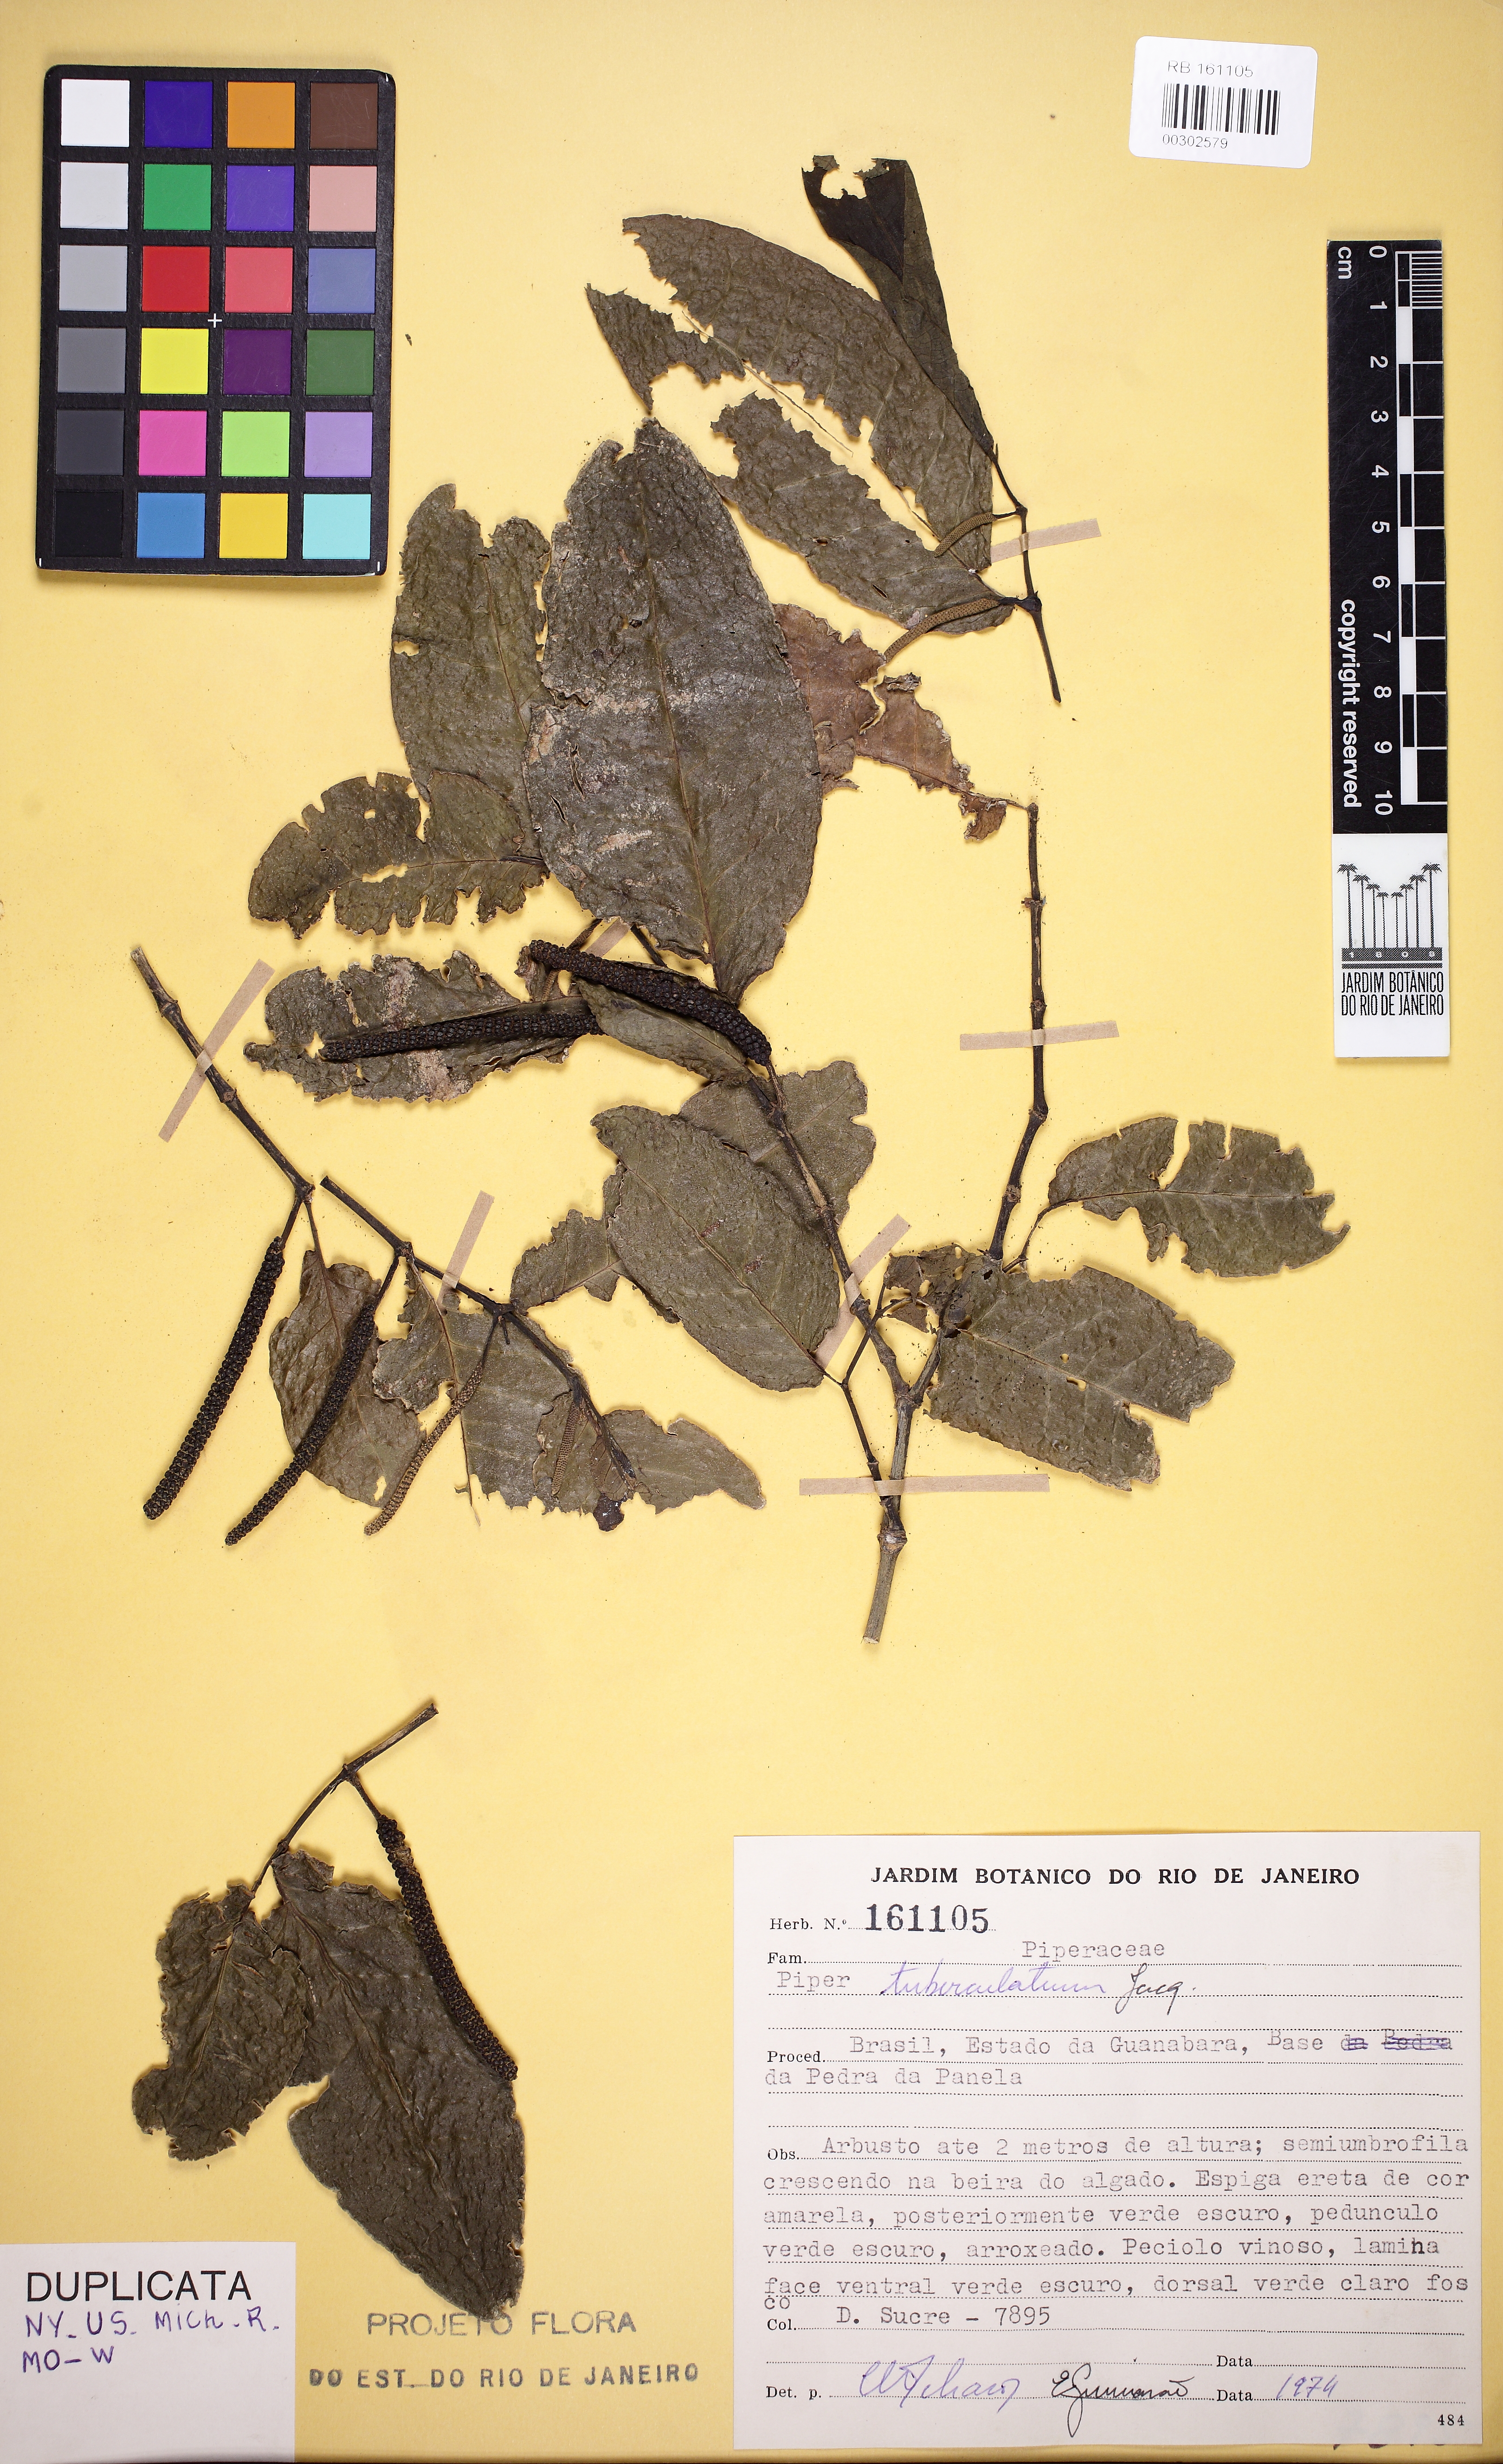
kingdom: Plantae
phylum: Tracheophyta
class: Magnoliopsida
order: Piperales
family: Piperaceae
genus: Piper
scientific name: Piper tuberculatum
